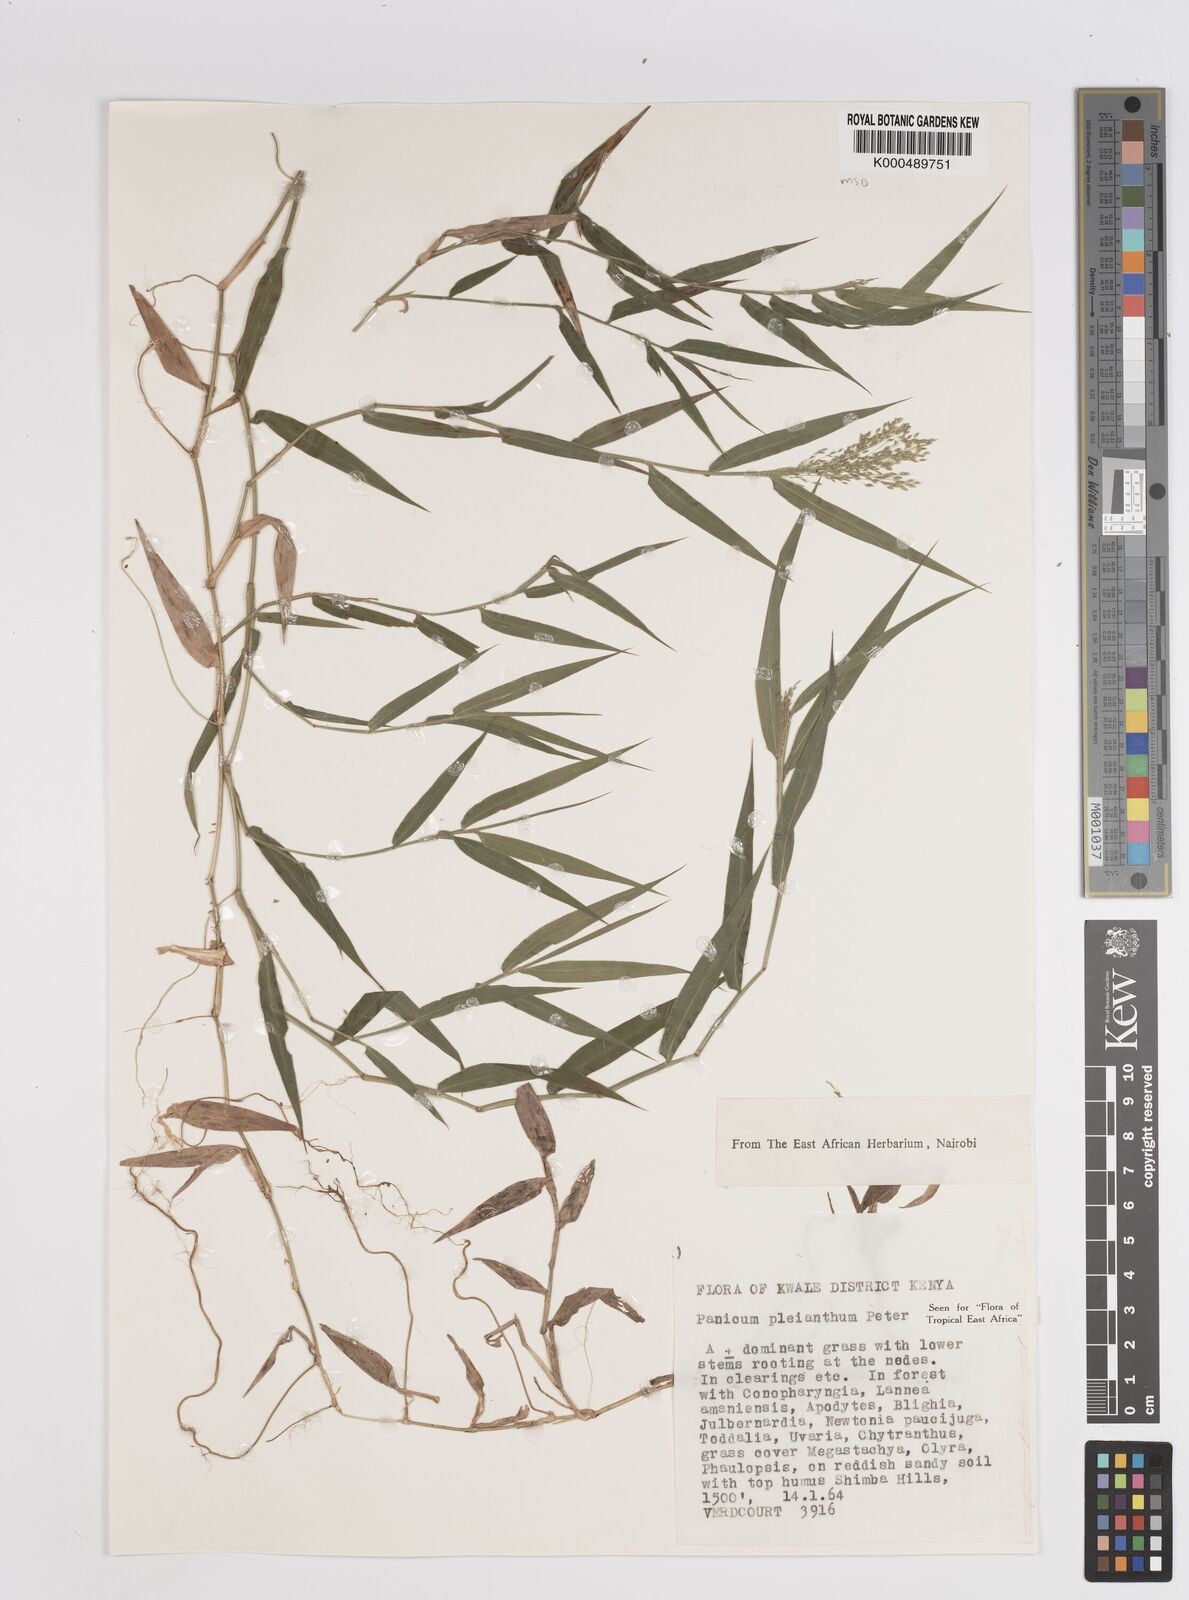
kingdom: Plantae
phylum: Tracheophyta
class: Liliopsida
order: Poales
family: Poaceae
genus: Panicum
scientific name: Panicum pleianthum
